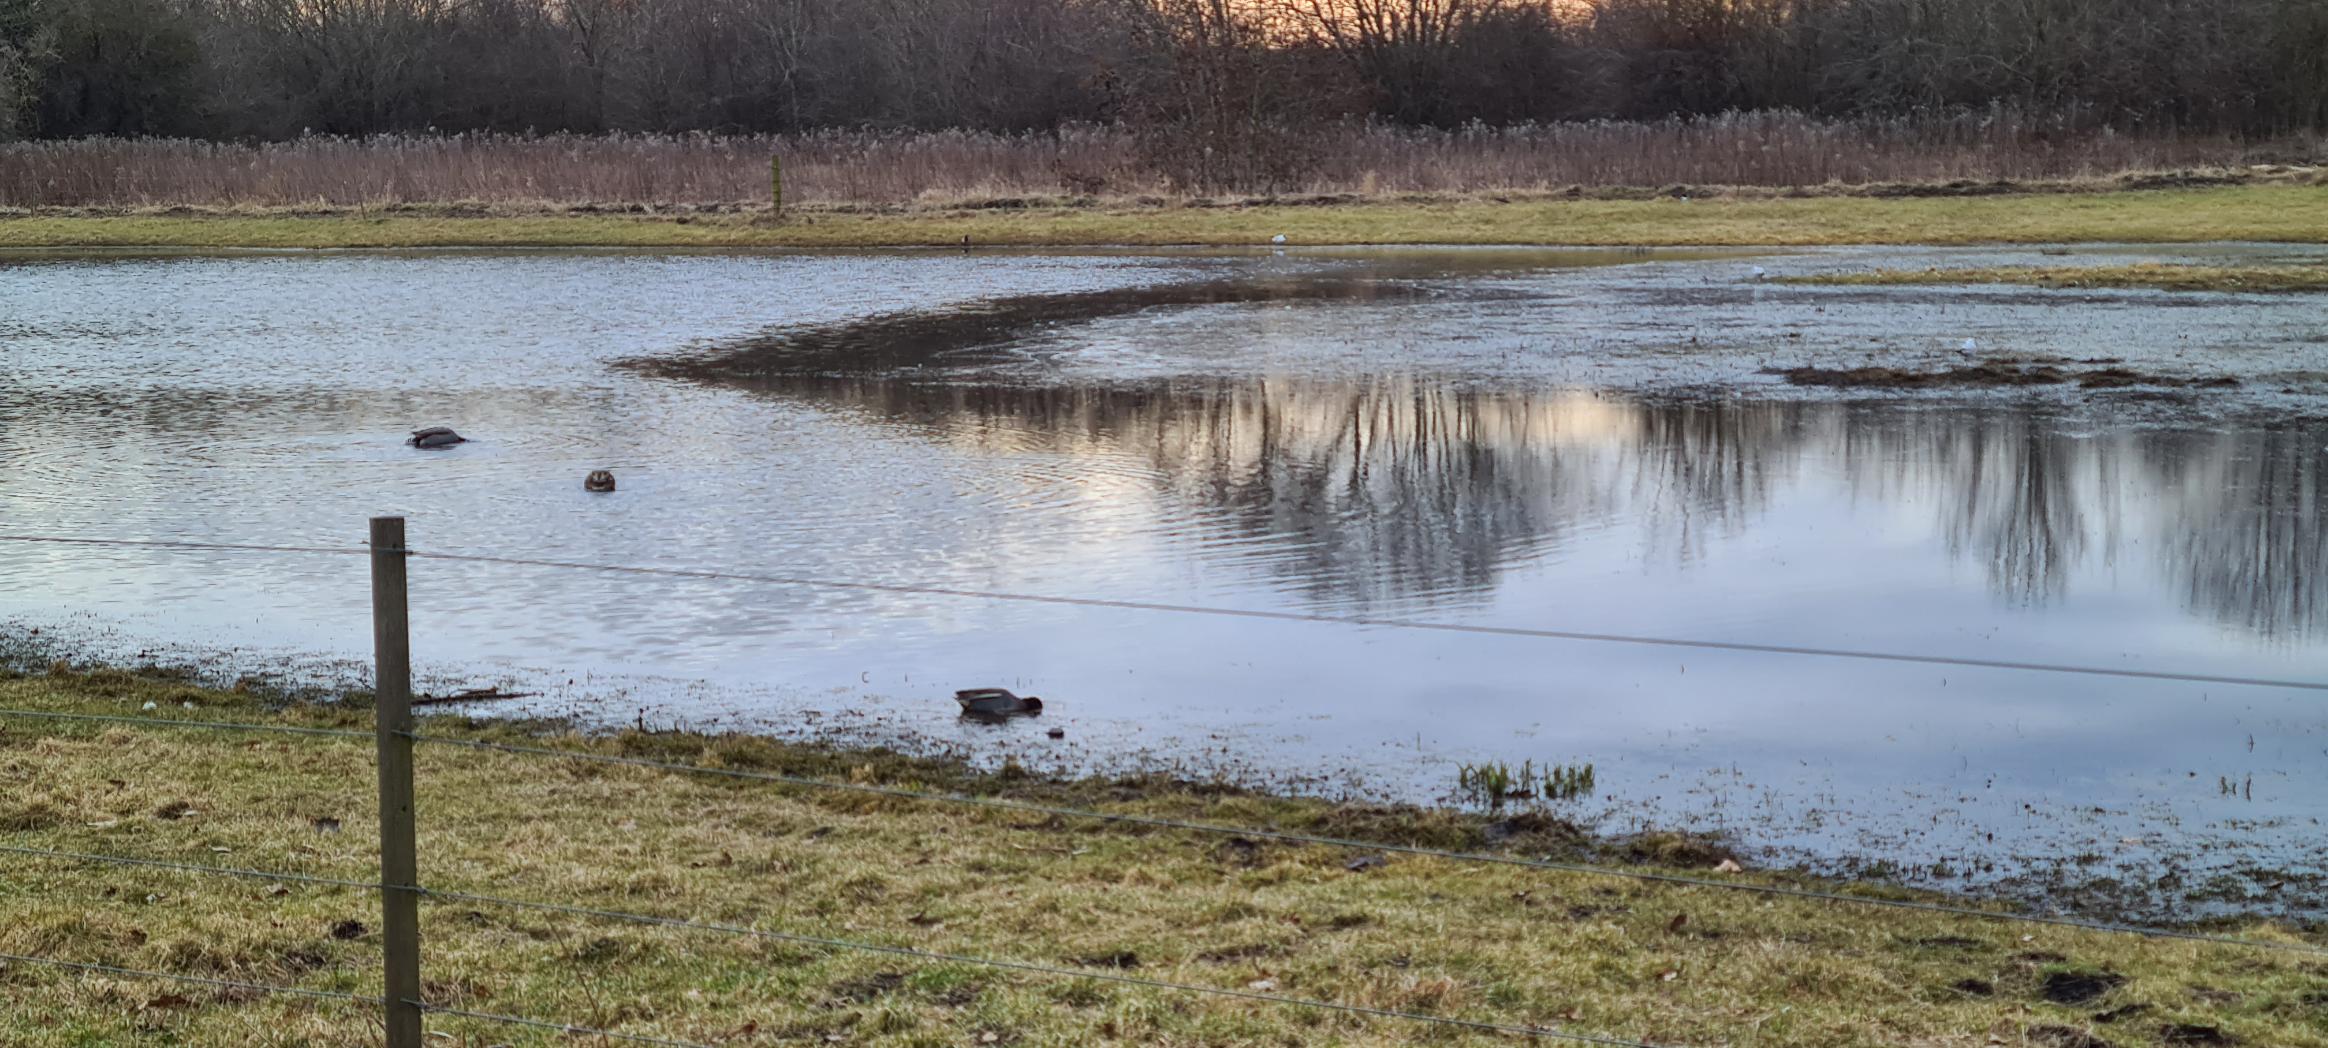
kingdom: Animalia
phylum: Chordata
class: Aves
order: Anseriformes
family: Anatidae
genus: Anas
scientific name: Anas crecca
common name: Krikand
